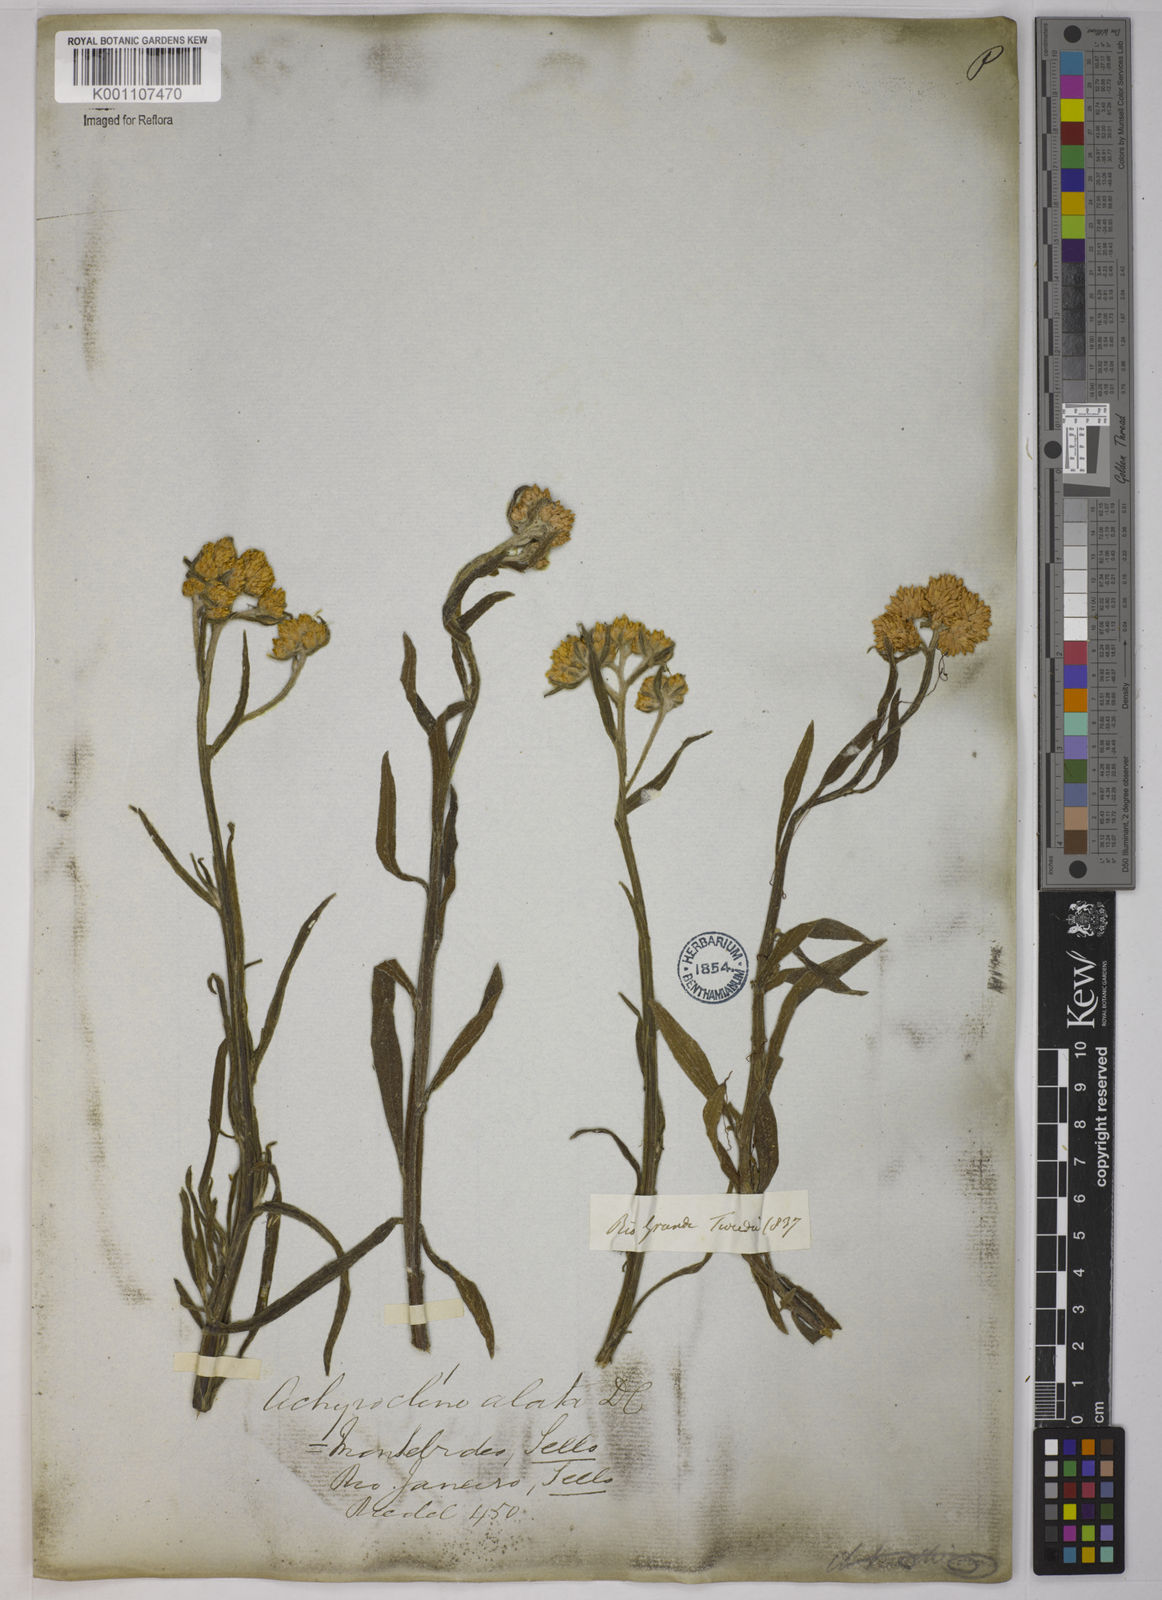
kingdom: Plantae
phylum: Tracheophyta
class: Magnoliopsida
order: Asterales
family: Asteraceae
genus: Achyrocline
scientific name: Achyrocline alata
